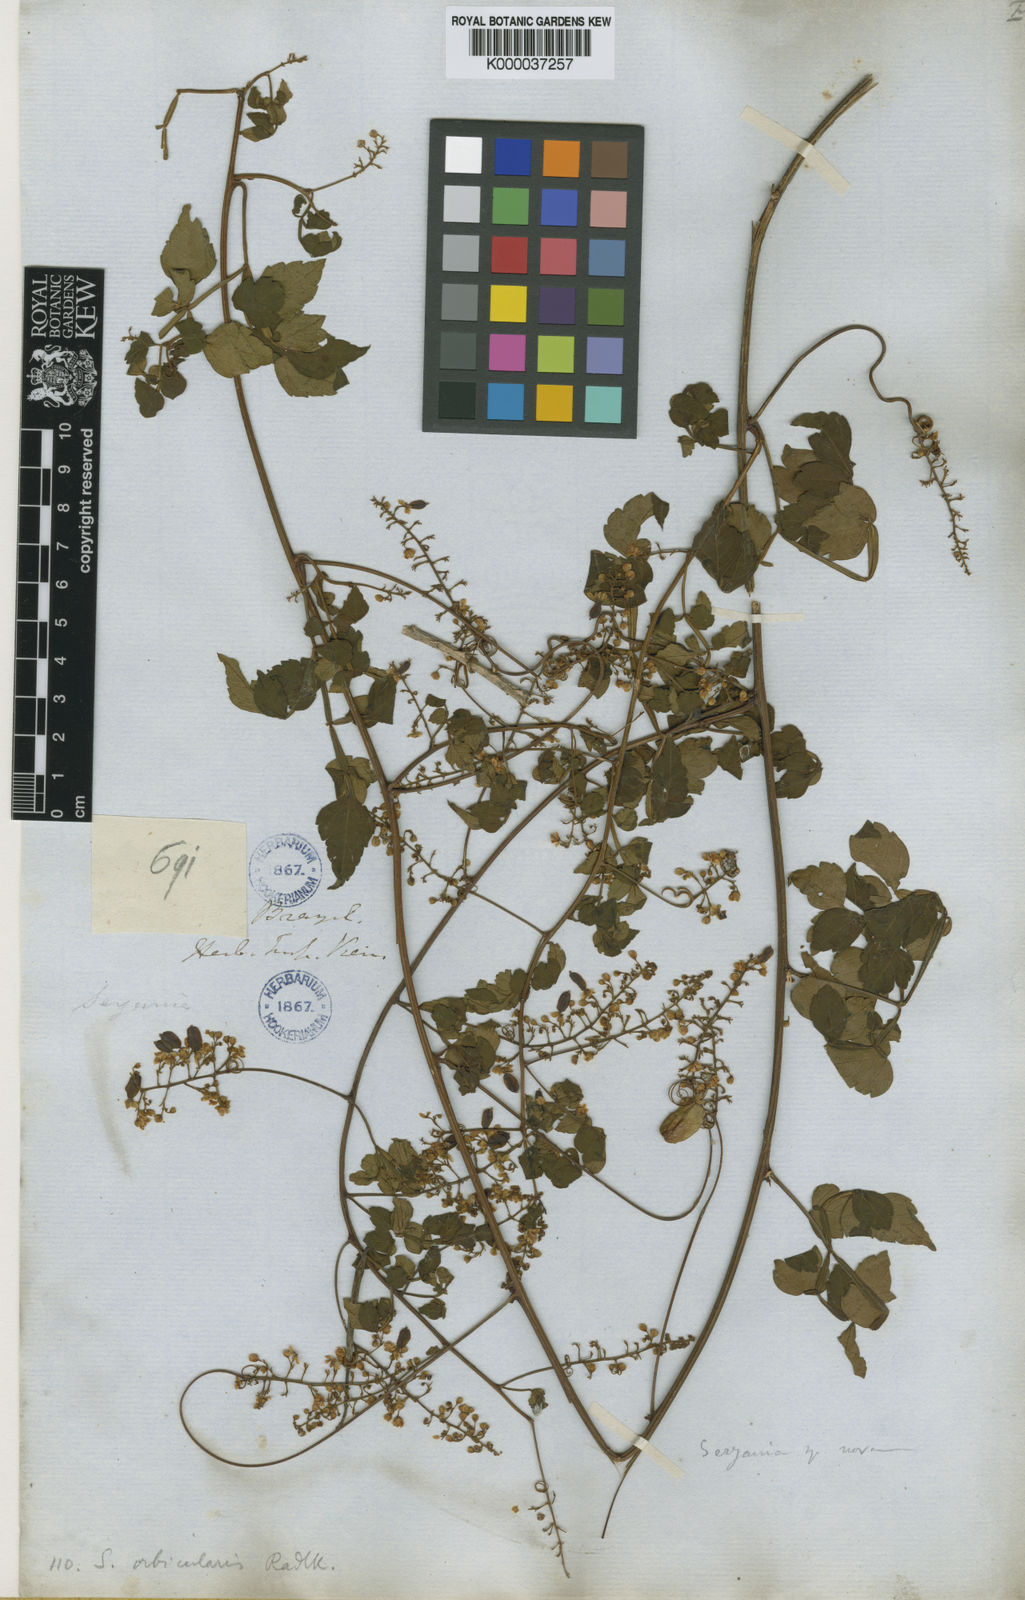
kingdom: Plantae
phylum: Tracheophyta
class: Magnoliopsida
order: Sapindales
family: Sapindaceae
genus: Serjania
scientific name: Serjania orbicularis
